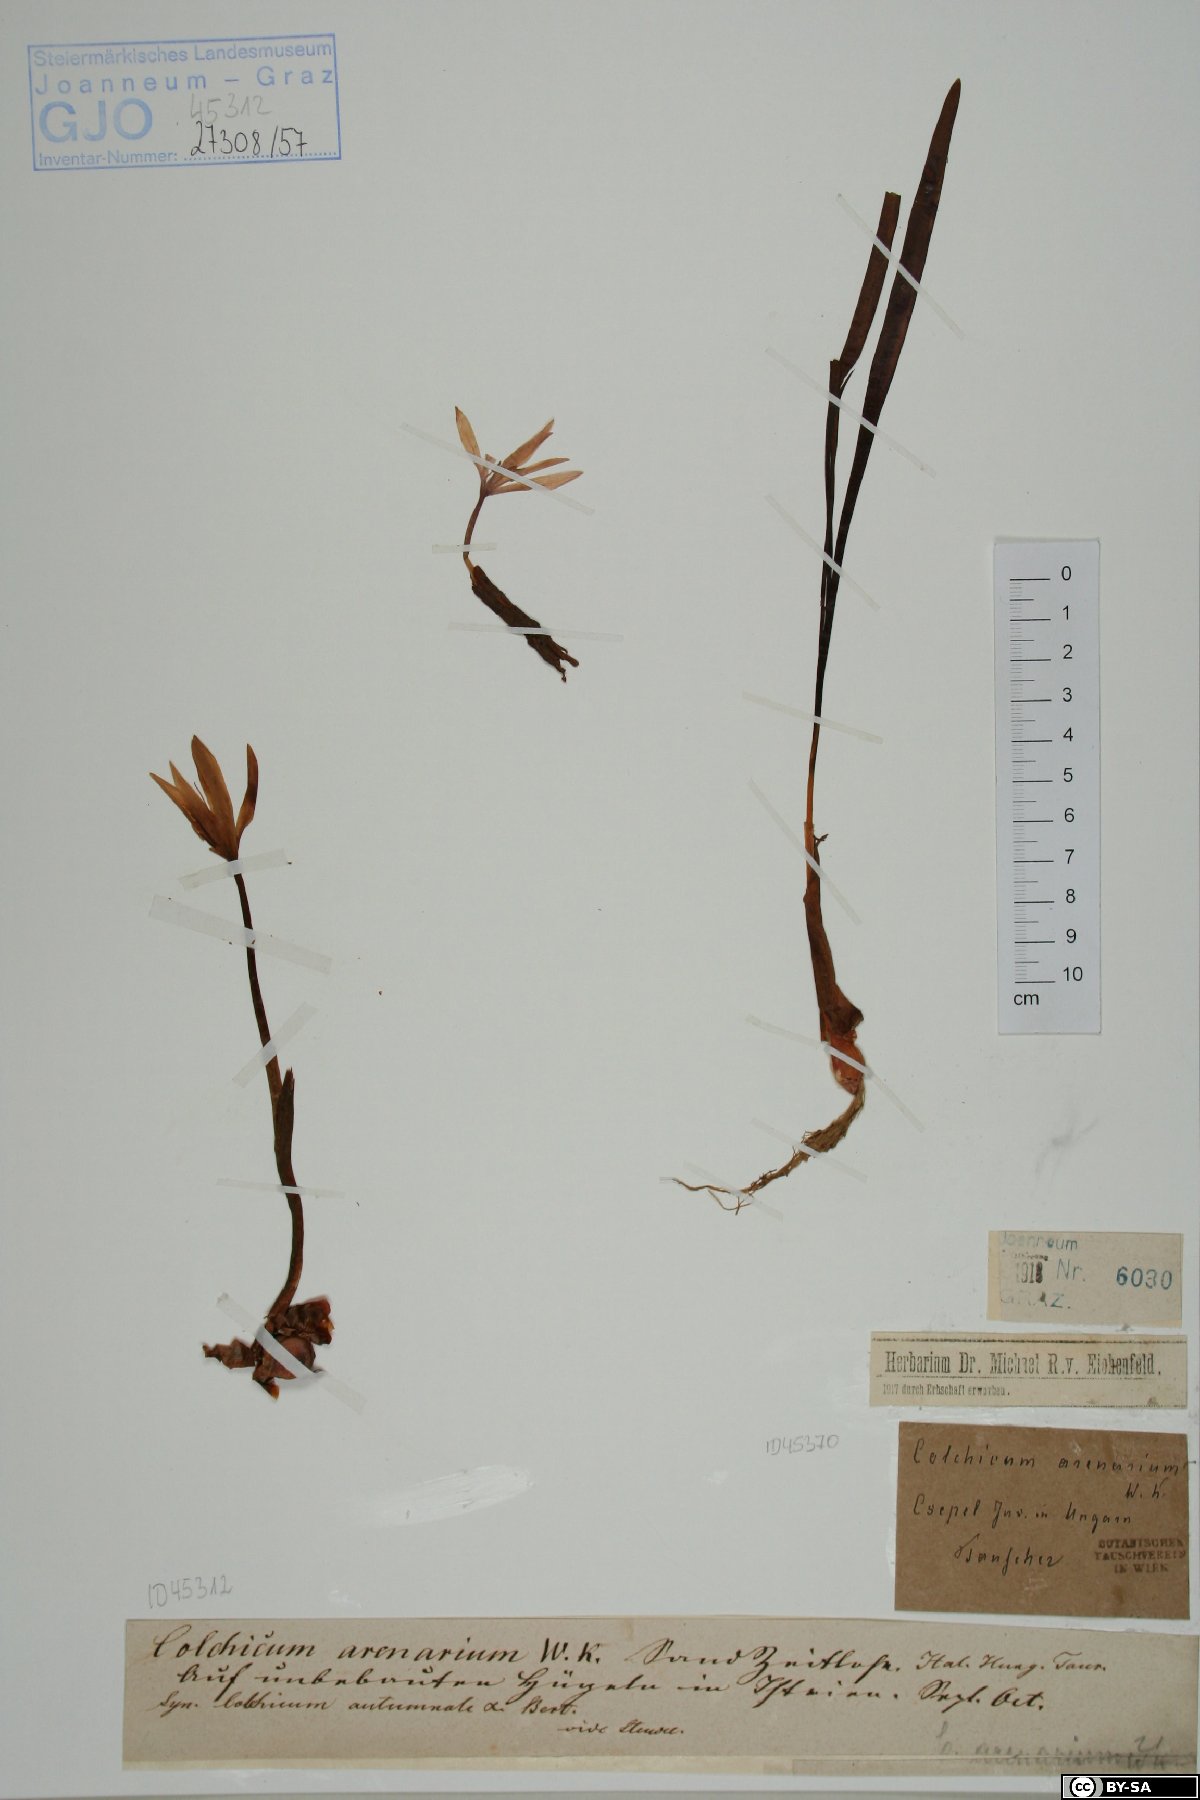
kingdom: Plantae
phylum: Tracheophyta
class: Liliopsida
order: Liliales
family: Colchicaceae
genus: Colchicum
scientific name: Colchicum autumnale
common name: Autumn crocus
